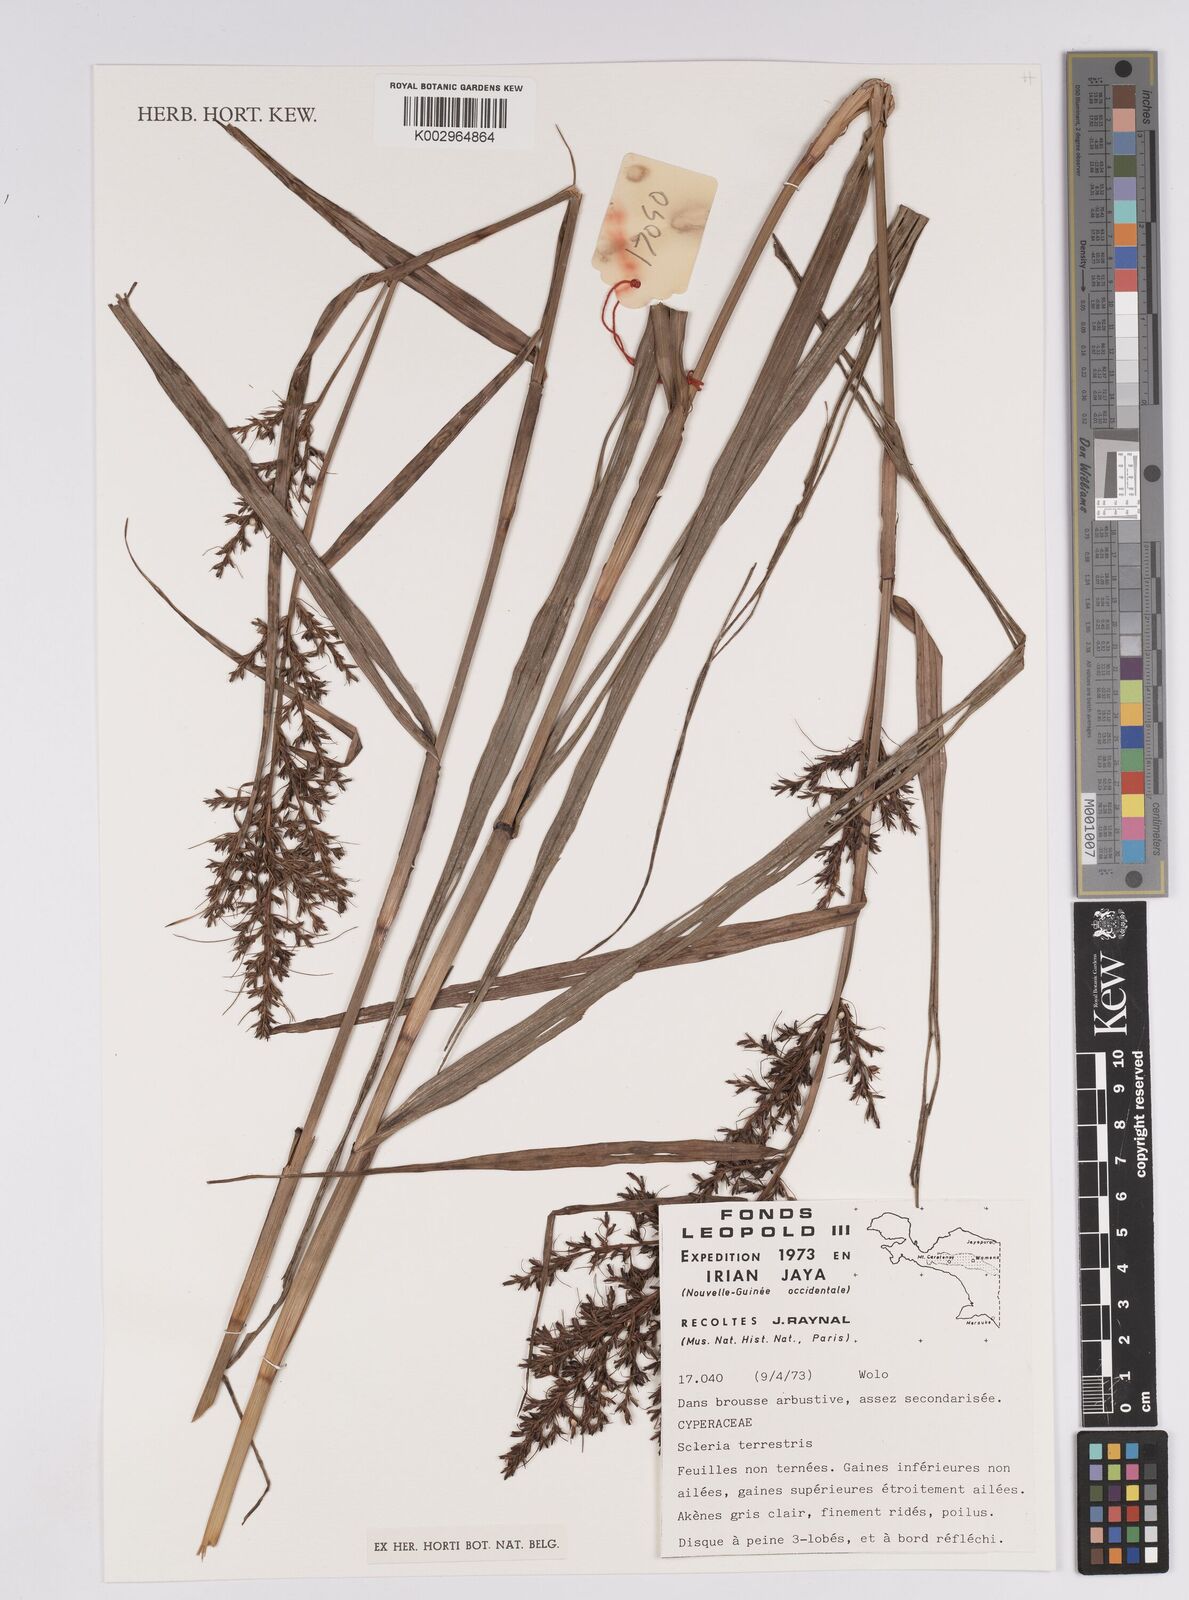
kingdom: Plantae
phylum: Tracheophyta
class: Liliopsida
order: Poales
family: Cyperaceae
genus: Scleria
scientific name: Scleria terrestris
